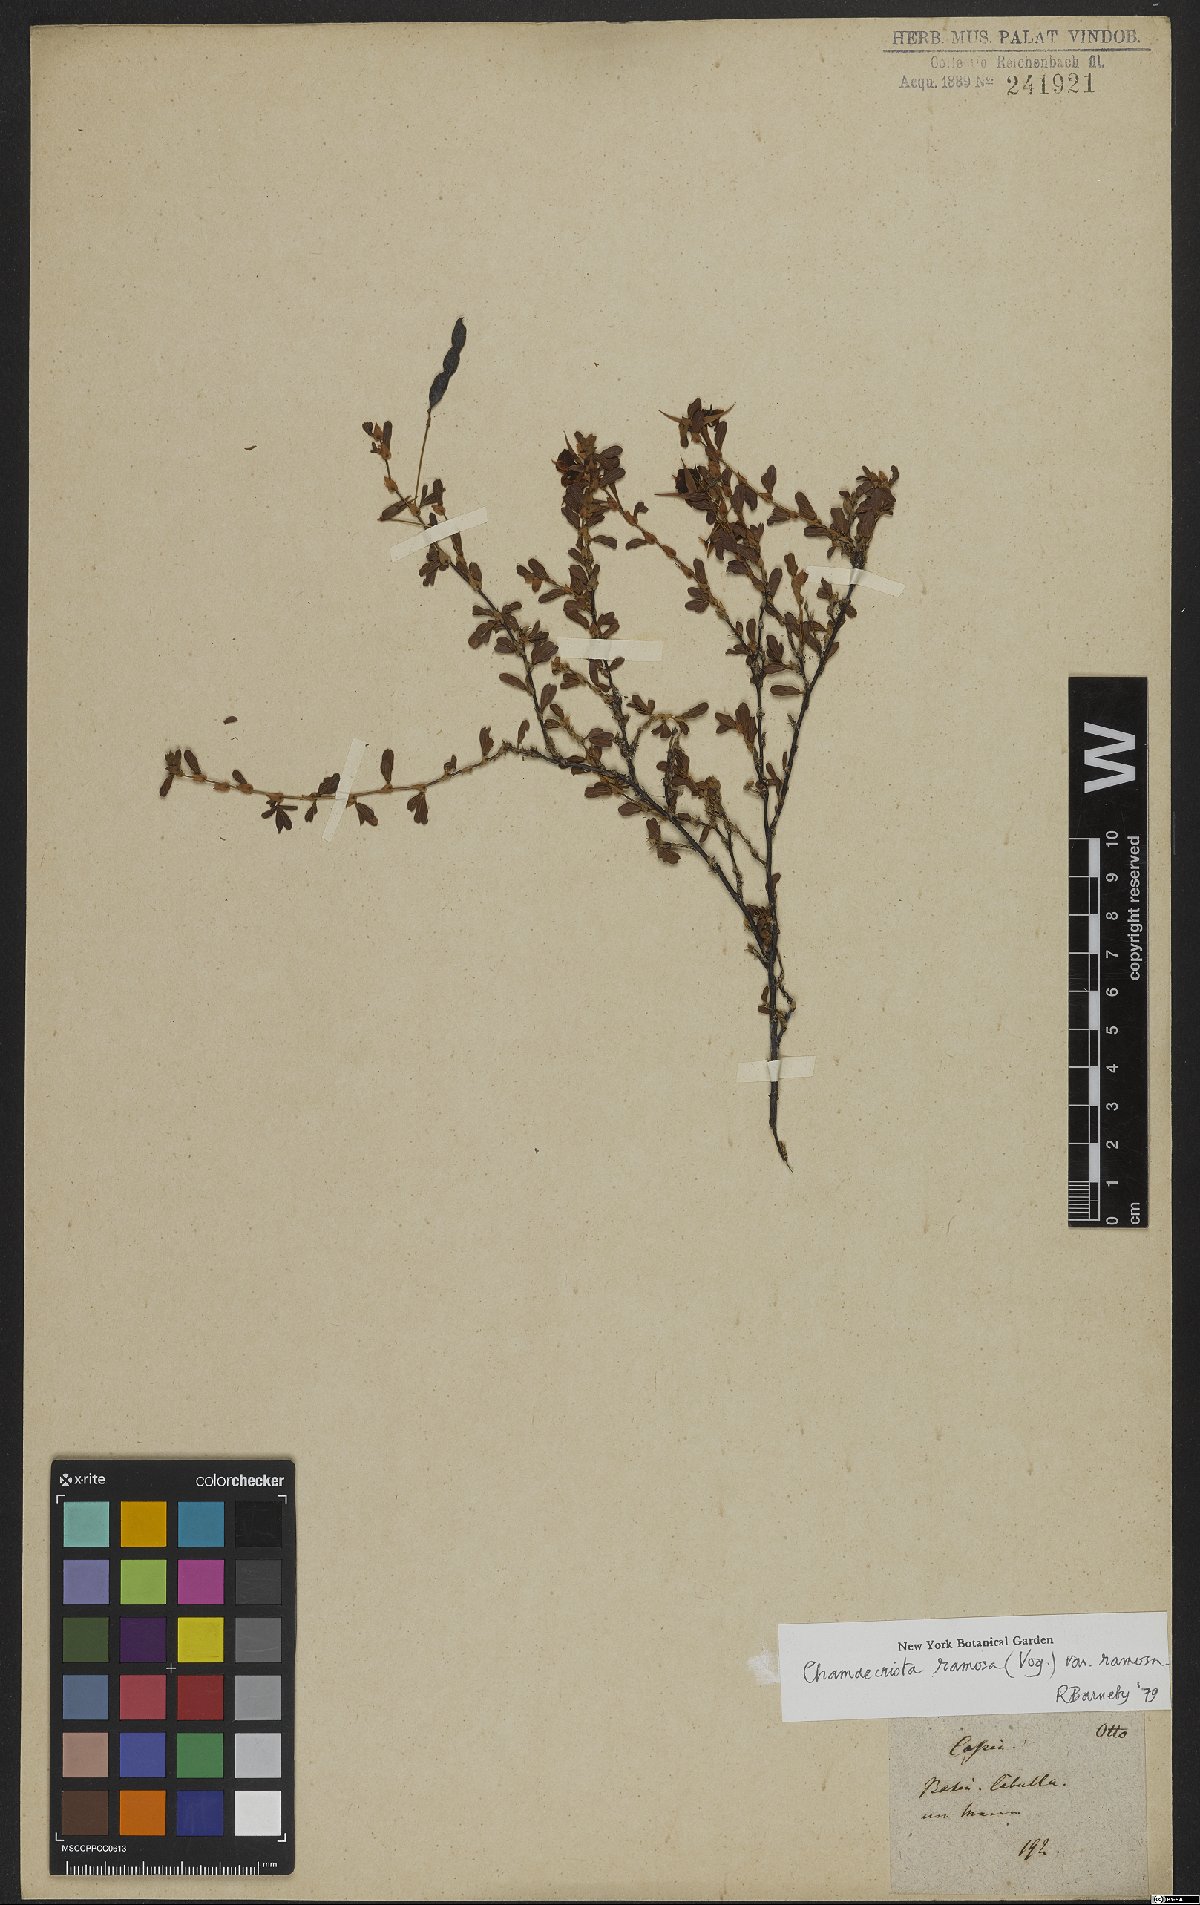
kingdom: Plantae
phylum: Tracheophyta
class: Magnoliopsida
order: Fabales
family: Fabaceae
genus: Chamaecrista
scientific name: Chamaecrista ramosa
